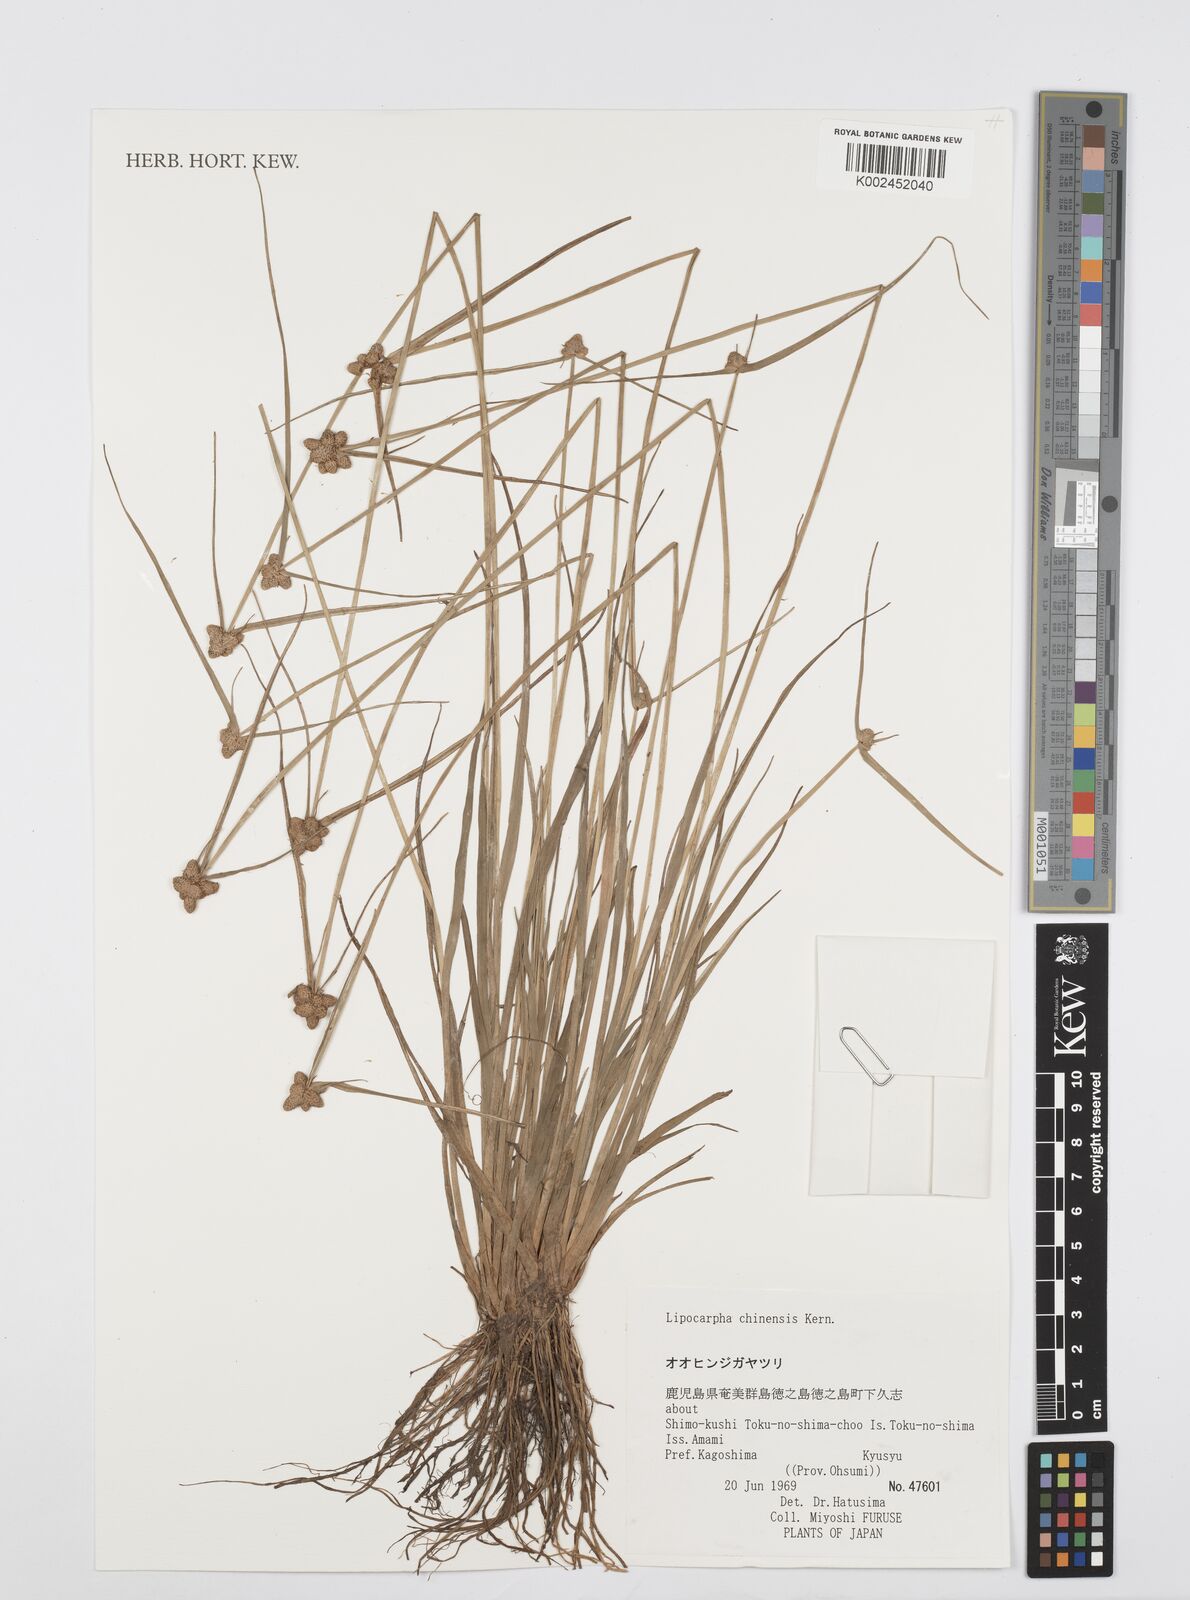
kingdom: Plantae
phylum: Tracheophyta
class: Liliopsida
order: Poales
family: Cyperaceae
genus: Cyperus
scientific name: Cyperus albescens
